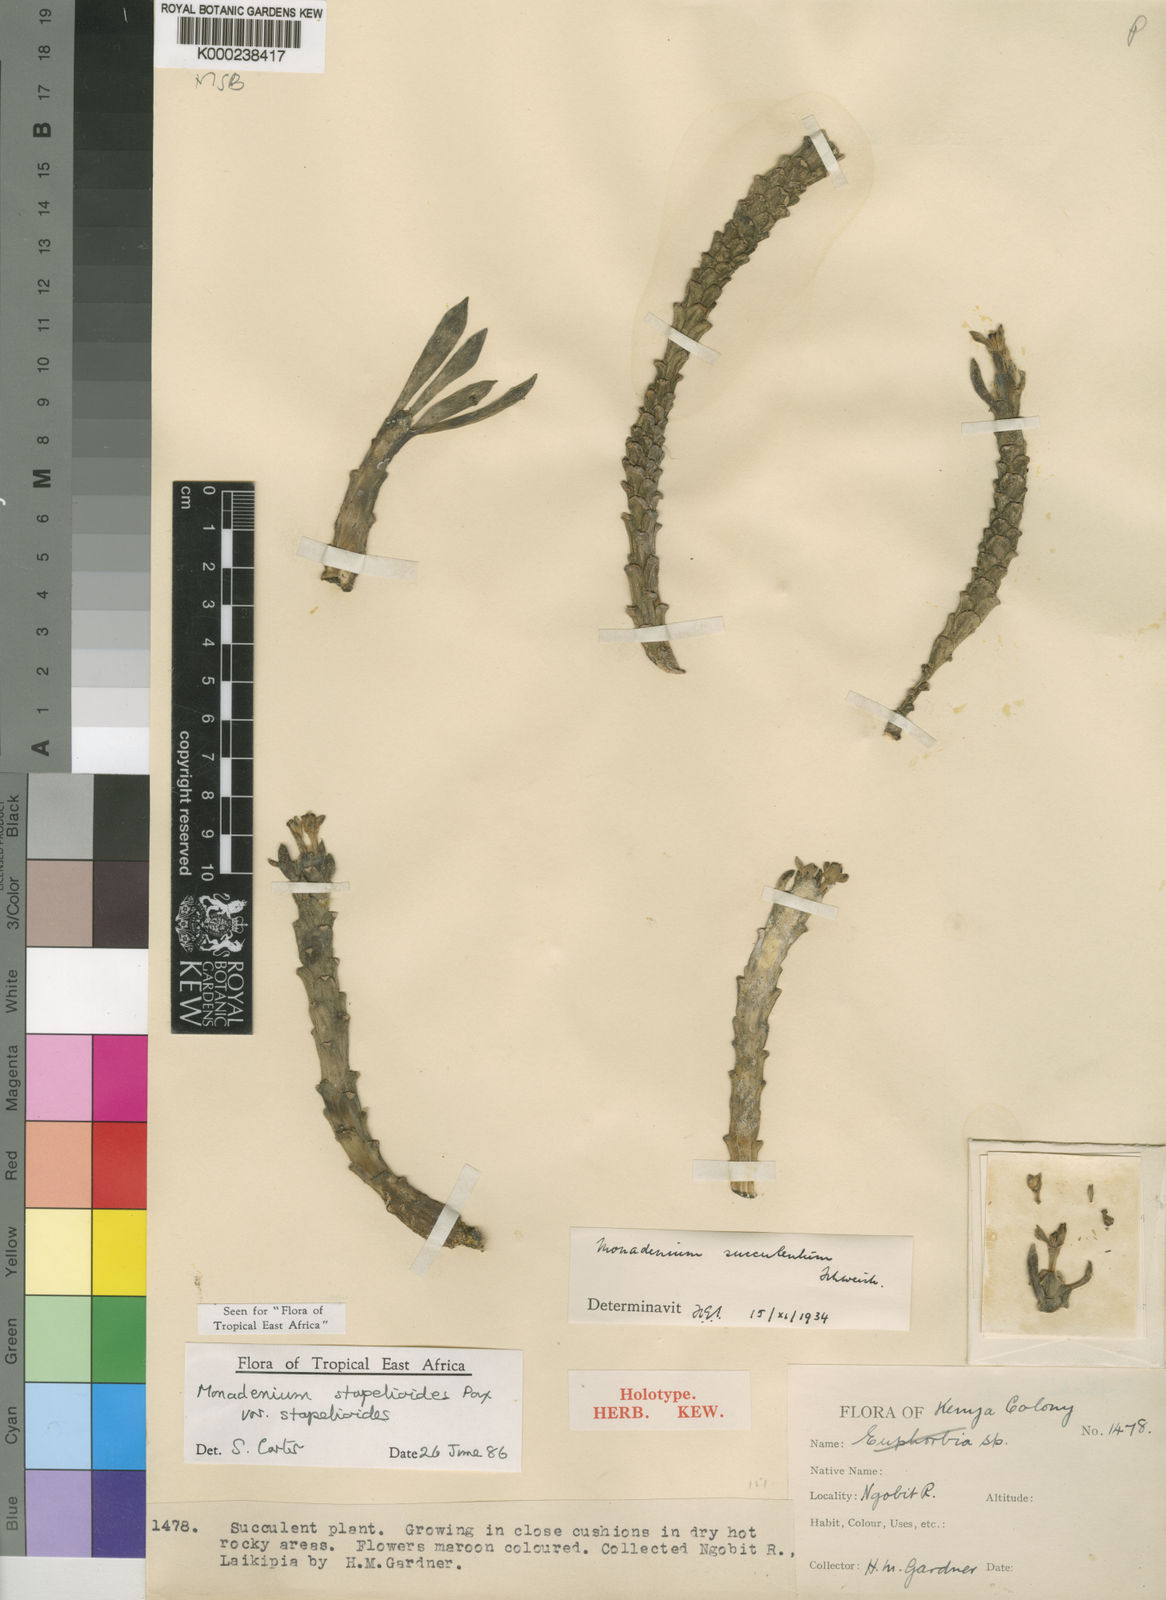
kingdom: Plantae
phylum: Tracheophyta
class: Magnoliopsida
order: Malpighiales
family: Euphorbiaceae
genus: Euphorbia
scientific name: Euphorbia succulenta
